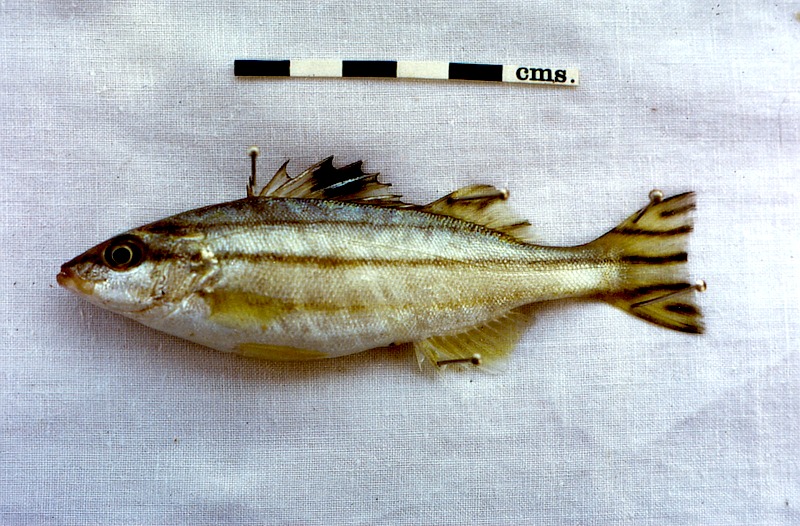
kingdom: Animalia
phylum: Chordata
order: Perciformes
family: Terapontidae
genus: Terapon
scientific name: Terapon puta
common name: Small-scaled terapon
